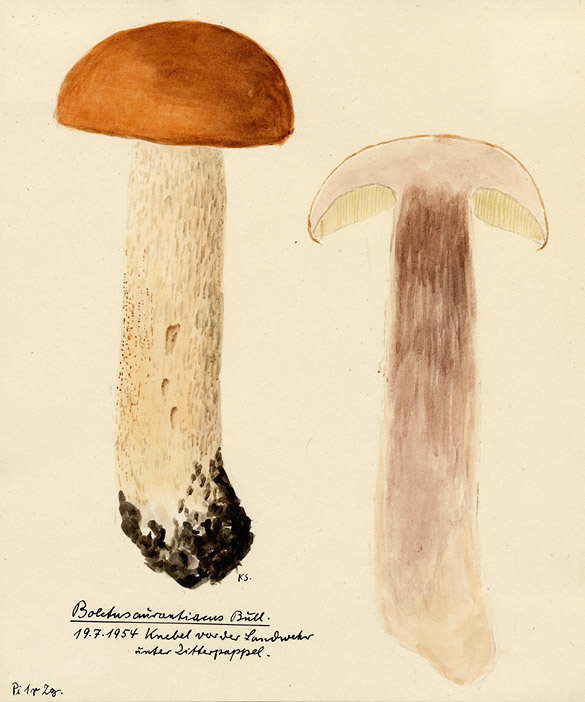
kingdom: Fungi
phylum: Basidiomycota
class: Agaricomycetes
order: Boletales
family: Boletaceae
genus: Leccinum
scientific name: Leccinum aurantiacum
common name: Orange bolete
